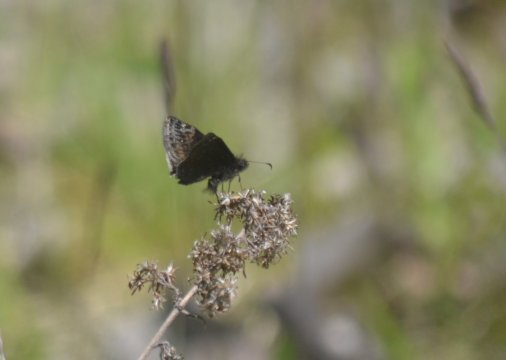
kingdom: Animalia
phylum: Arthropoda
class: Insecta
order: Lepidoptera
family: Hesperiidae
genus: Gesta
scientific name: Gesta
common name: Juvenal's Duskywing
